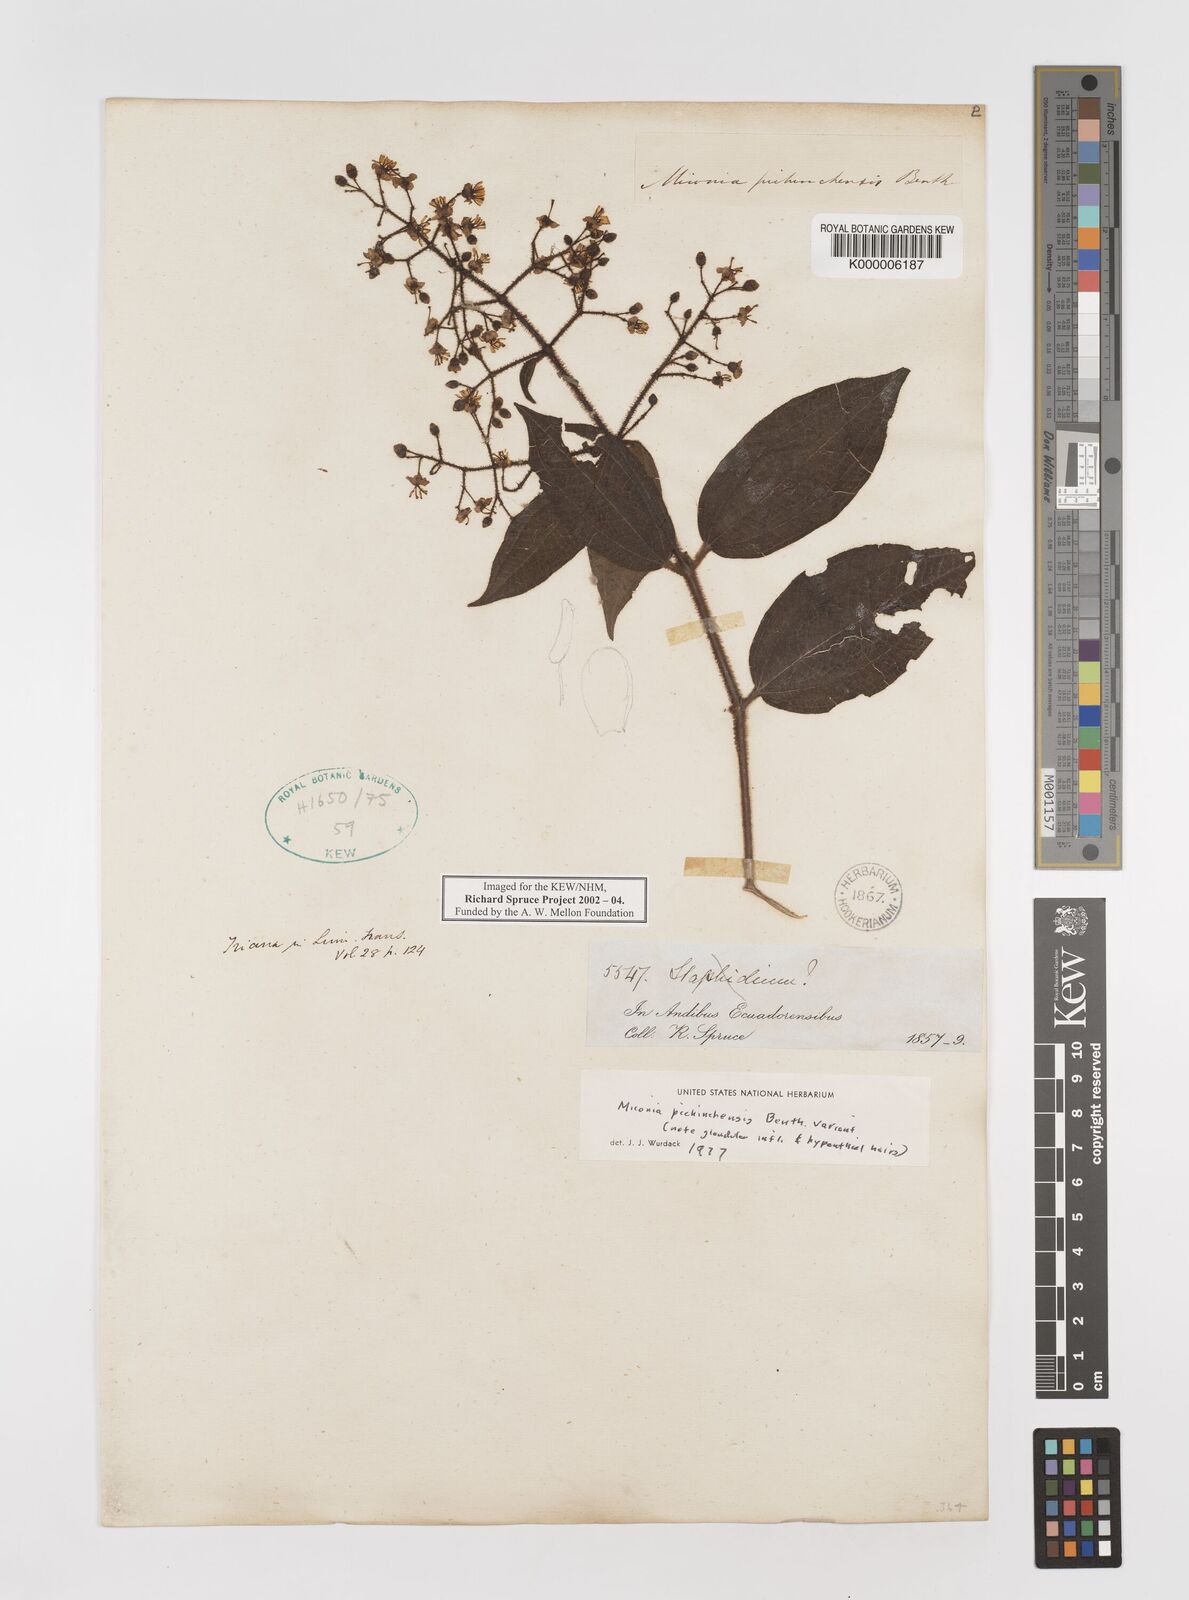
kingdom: Plantae
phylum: Tracheophyta
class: Magnoliopsida
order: Myrtales
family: Melastomataceae
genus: Miconia
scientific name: Miconia pichinchensis
